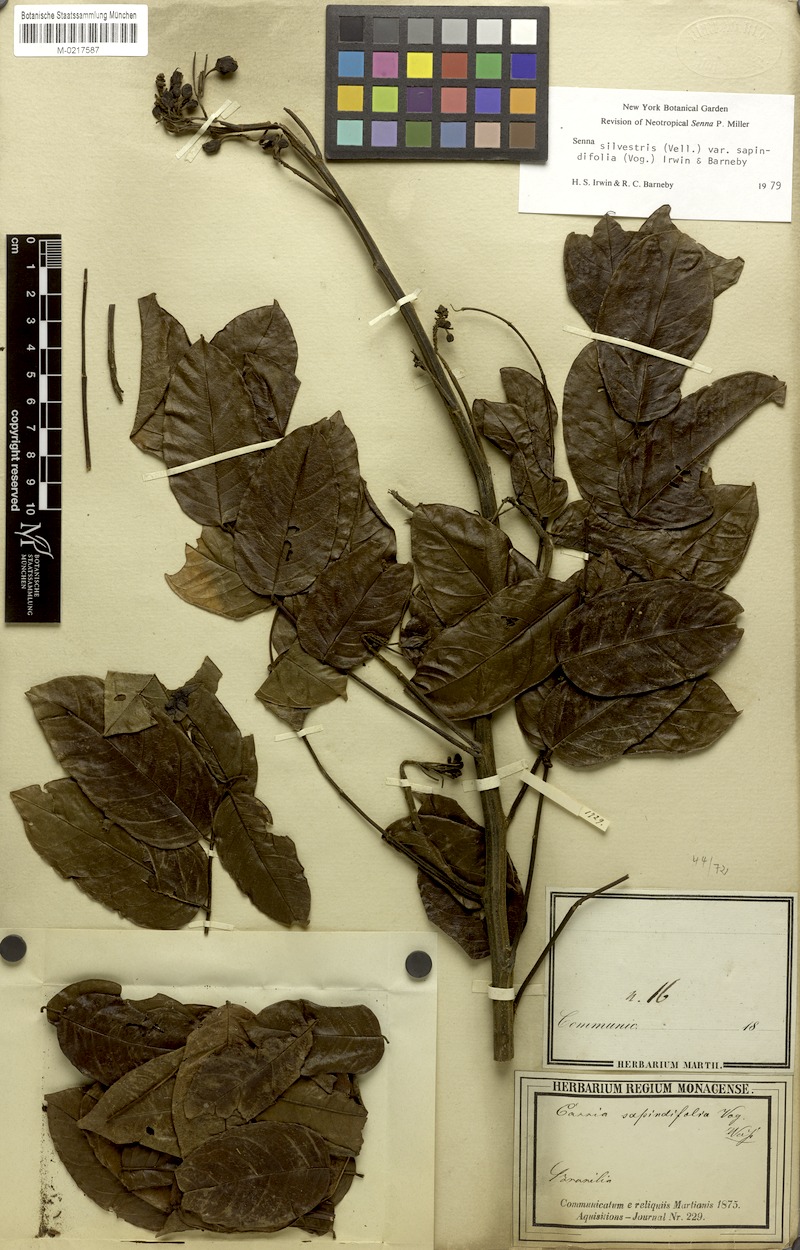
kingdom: Plantae
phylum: Tracheophyta
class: Magnoliopsida
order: Fabales
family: Fabaceae
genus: Senna
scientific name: Senna silvestris
